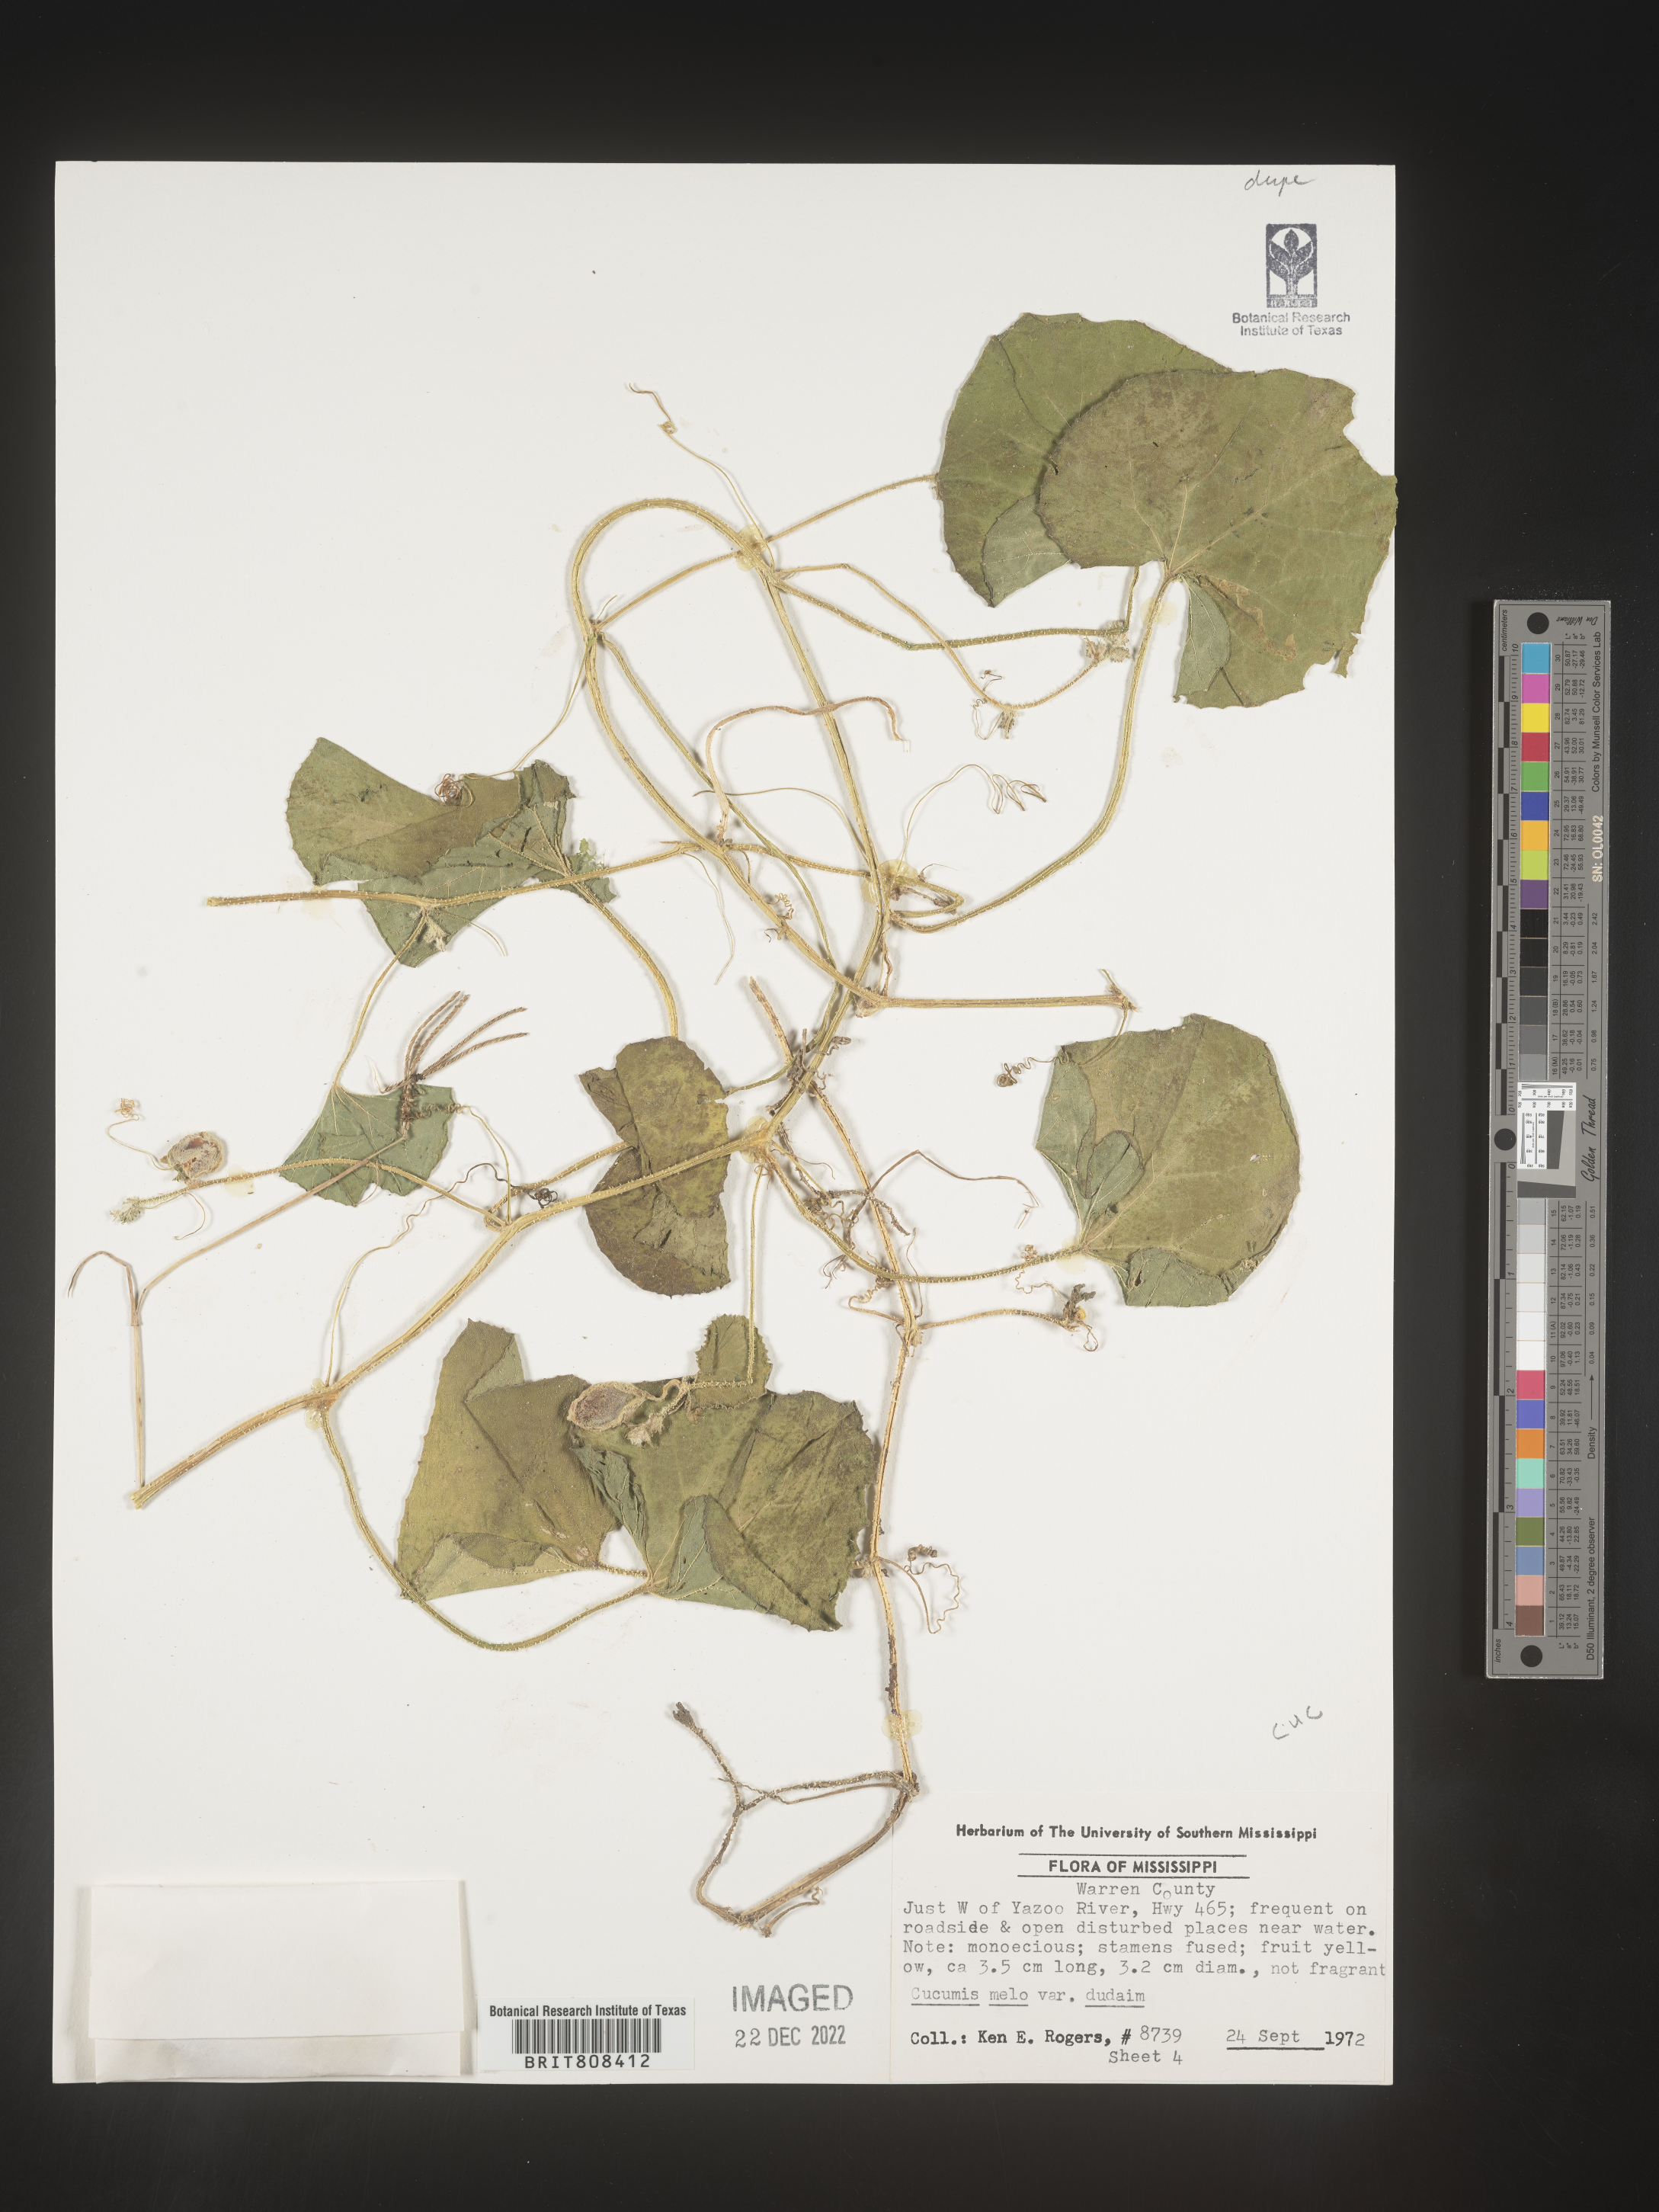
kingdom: Plantae
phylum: Tracheophyta
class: Magnoliopsida
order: Cucurbitales
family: Cucurbitaceae
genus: Cucumis
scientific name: Cucumis
